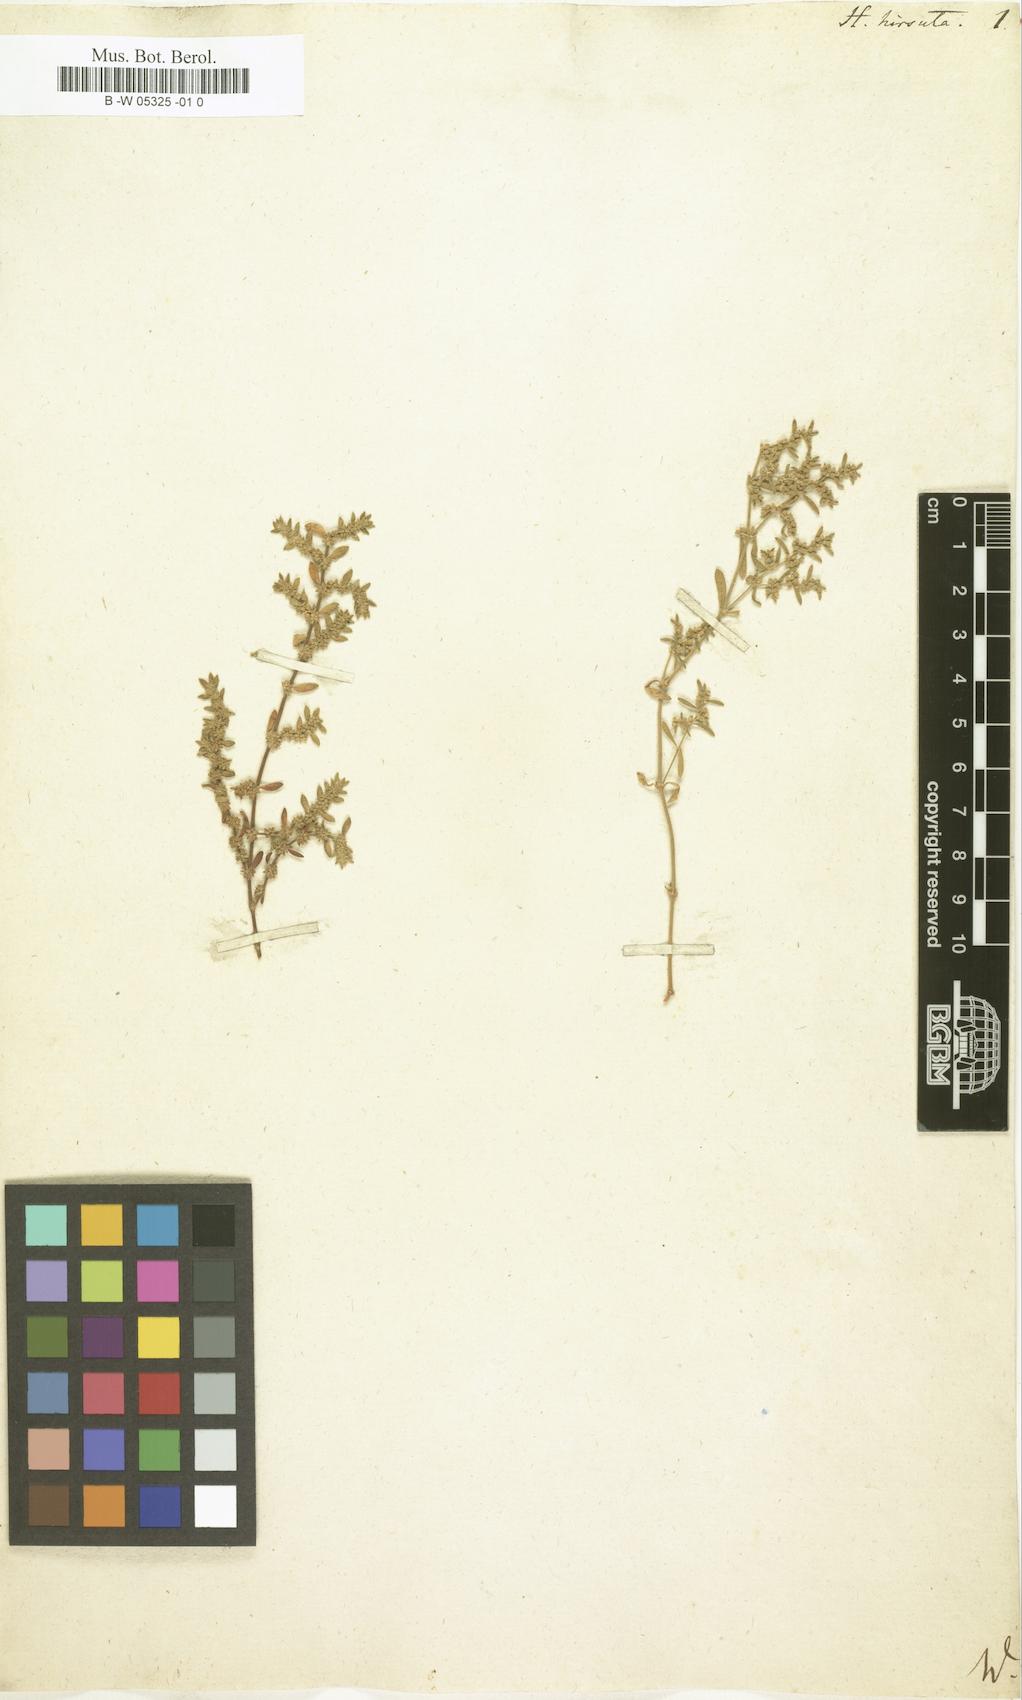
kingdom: Plantae
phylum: Tracheophyta
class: Magnoliopsida
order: Caryophyllales
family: Caryophyllaceae
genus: Herniaria
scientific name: Herniaria hirsuta
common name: Hairy rupturewort
